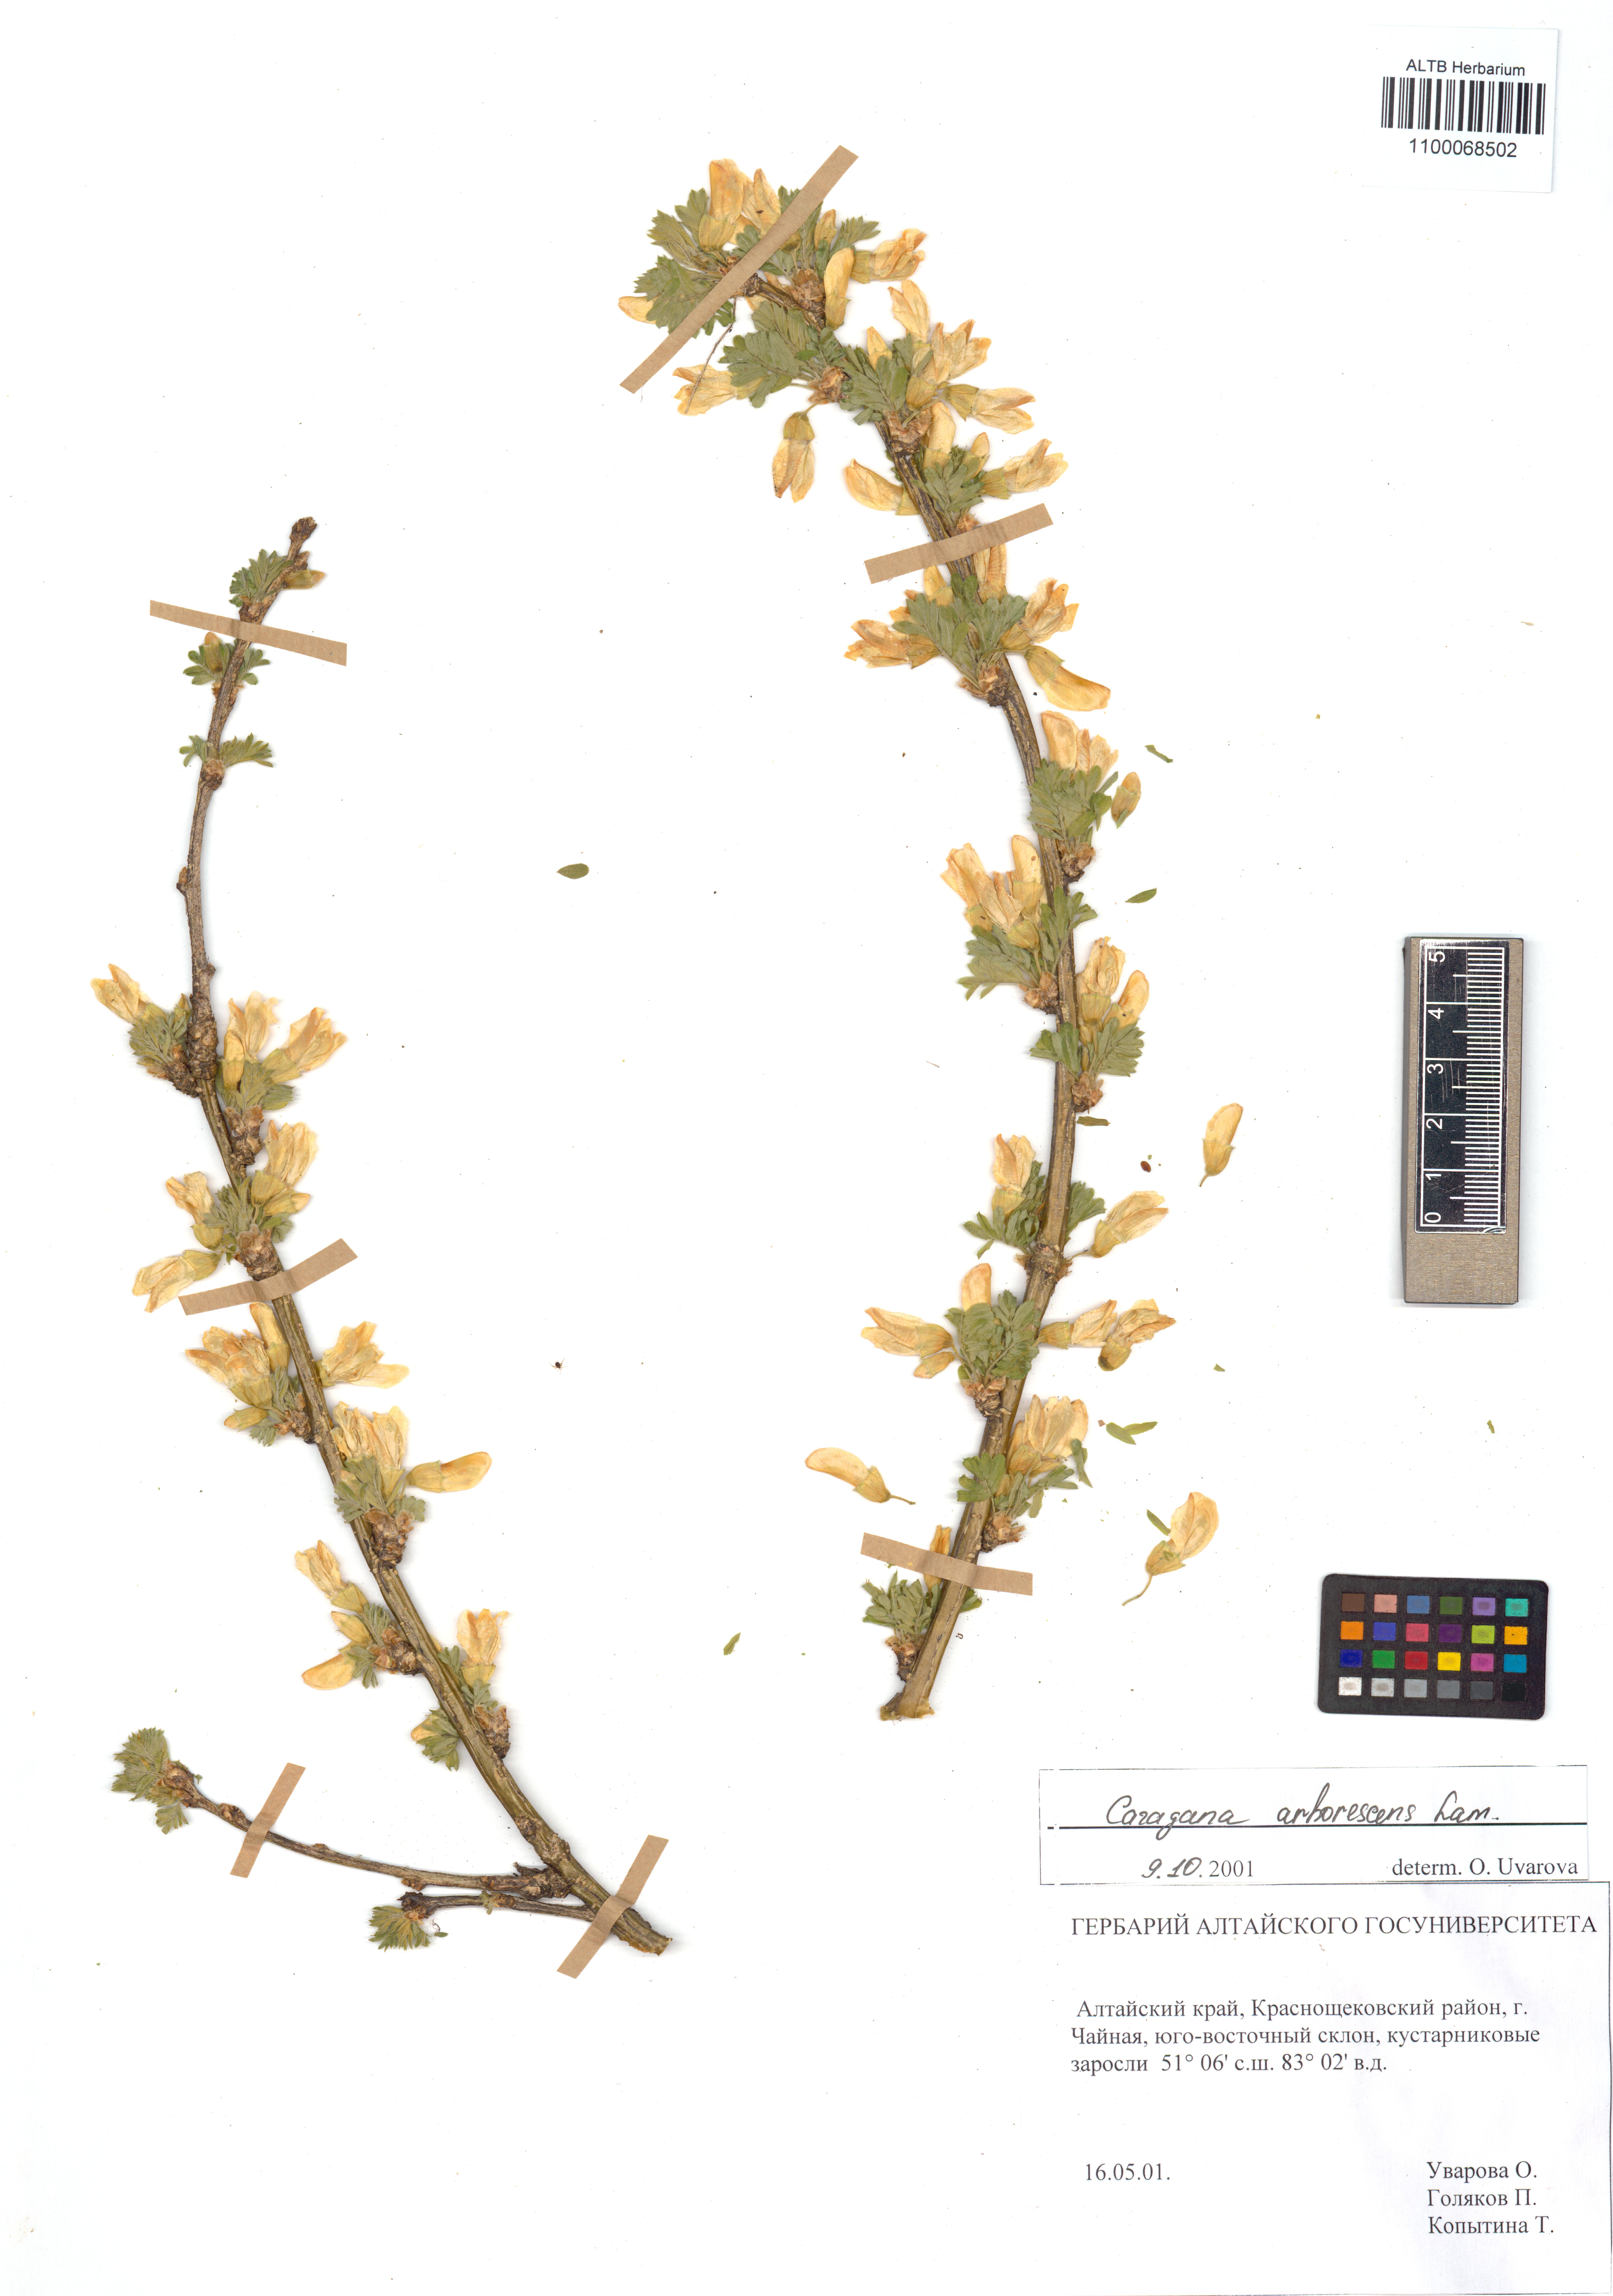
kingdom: Plantae
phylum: Tracheophyta
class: Magnoliopsida
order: Fabales
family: Fabaceae
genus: Caragana
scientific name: Caragana arborescens
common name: Siberian peashrub
